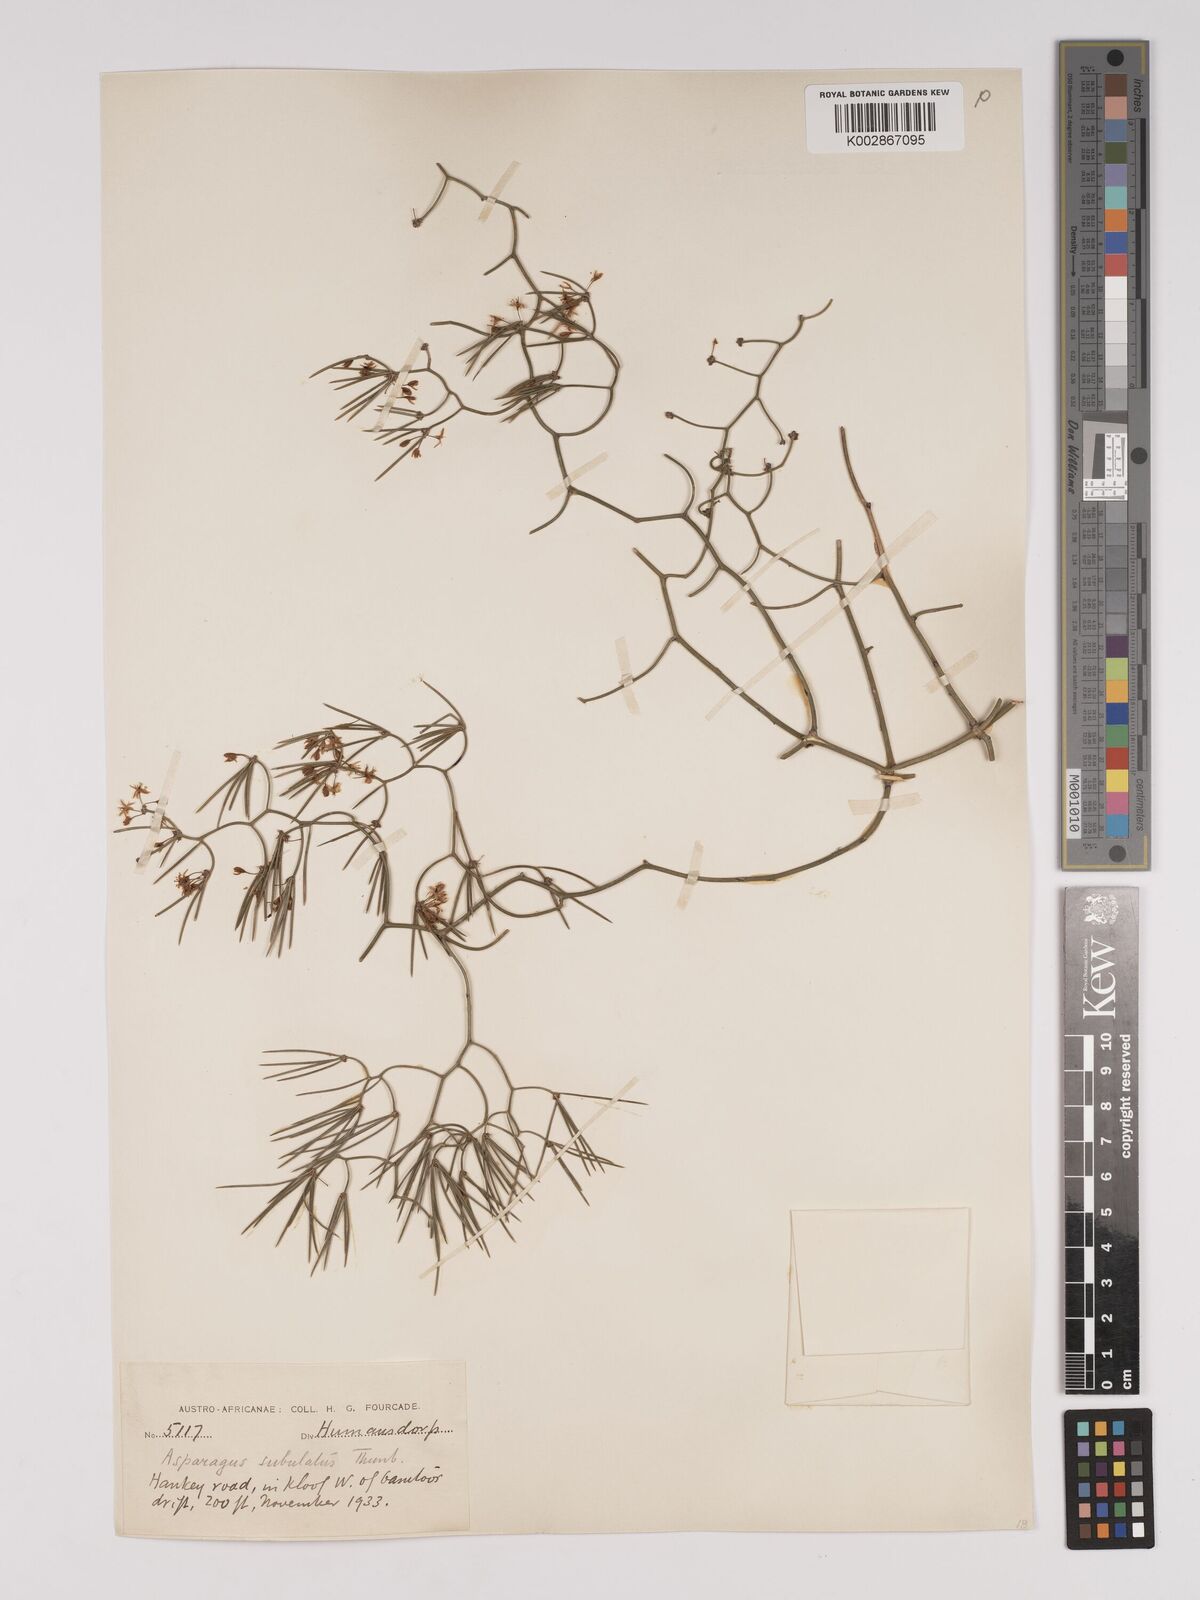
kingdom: Plantae
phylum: Tracheophyta
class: Liliopsida
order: Asparagales
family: Asparagaceae
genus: Asparagus
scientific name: Asparagus subulatus
